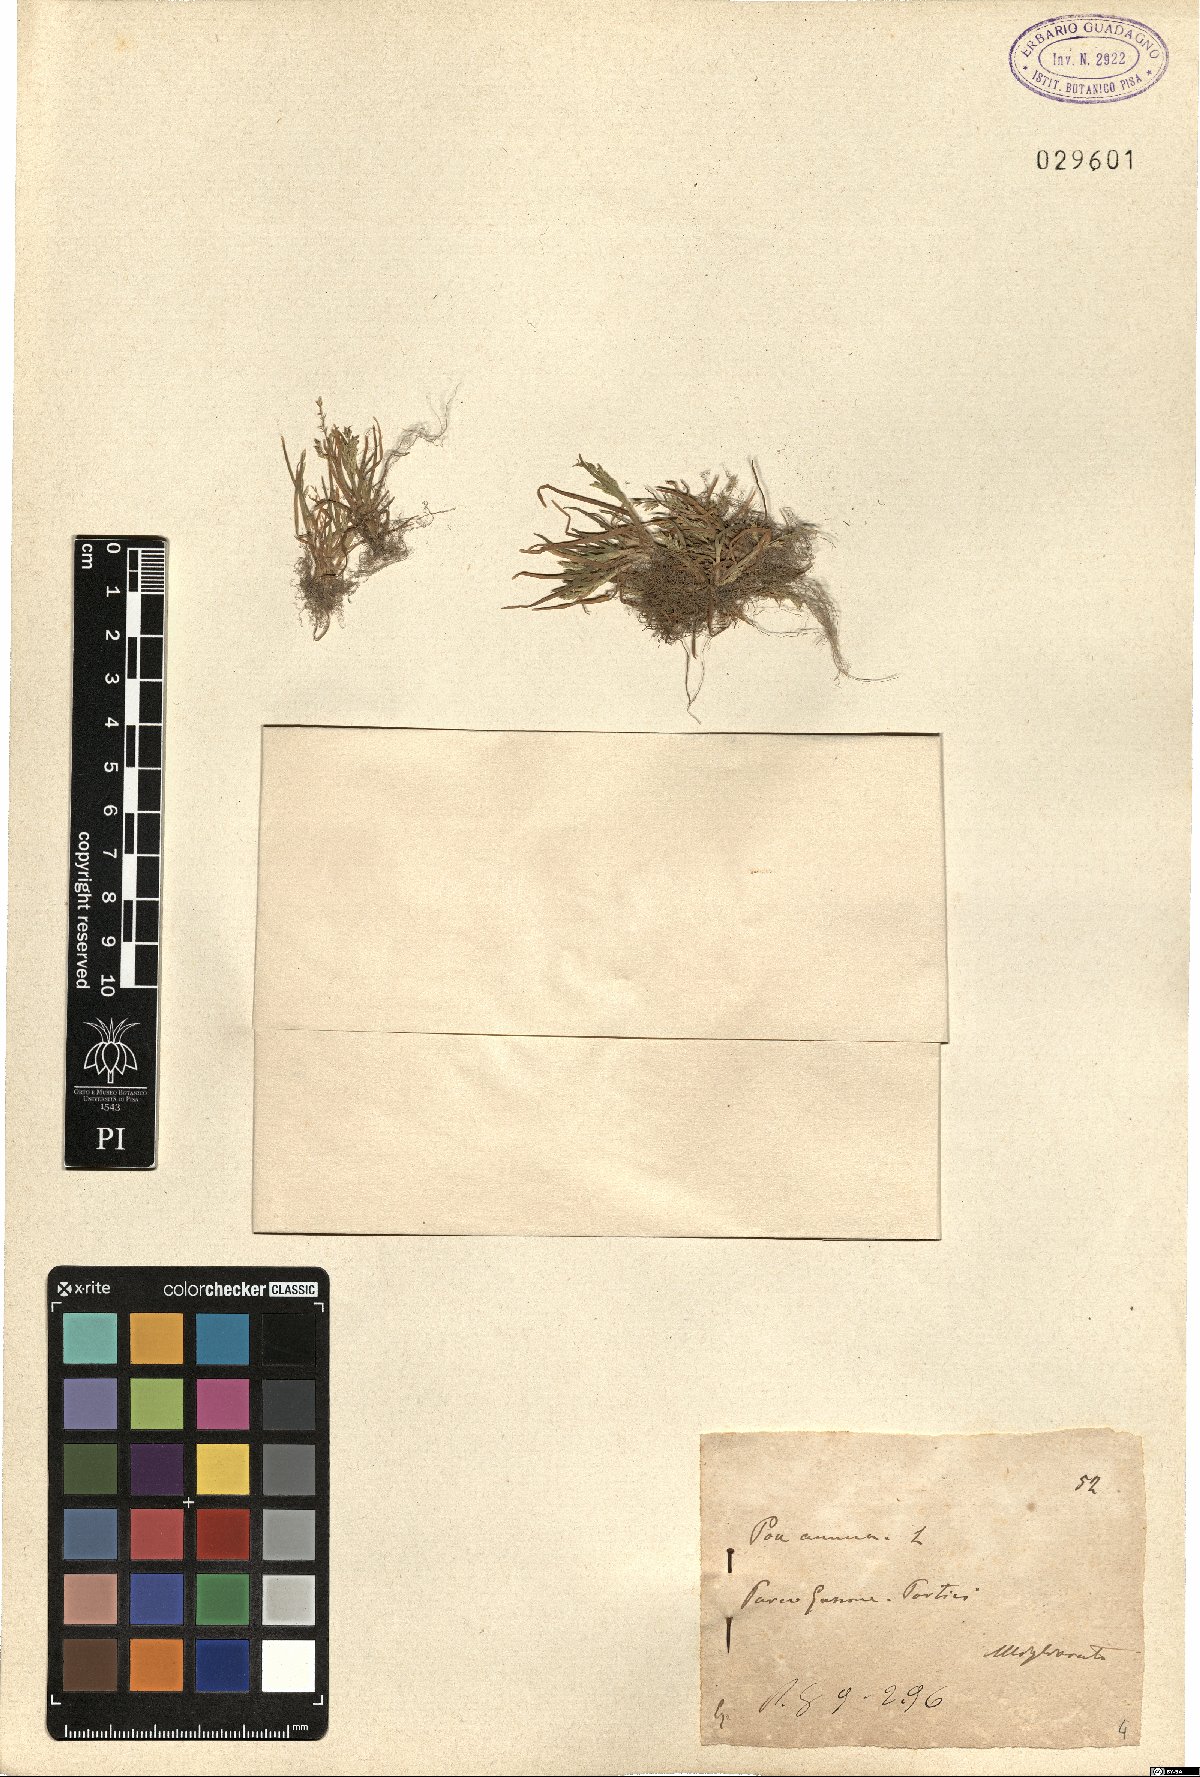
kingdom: Plantae
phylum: Tracheophyta
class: Liliopsida
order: Poales
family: Poaceae
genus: Poa
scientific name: Poa annua
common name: Annual bluegrass
